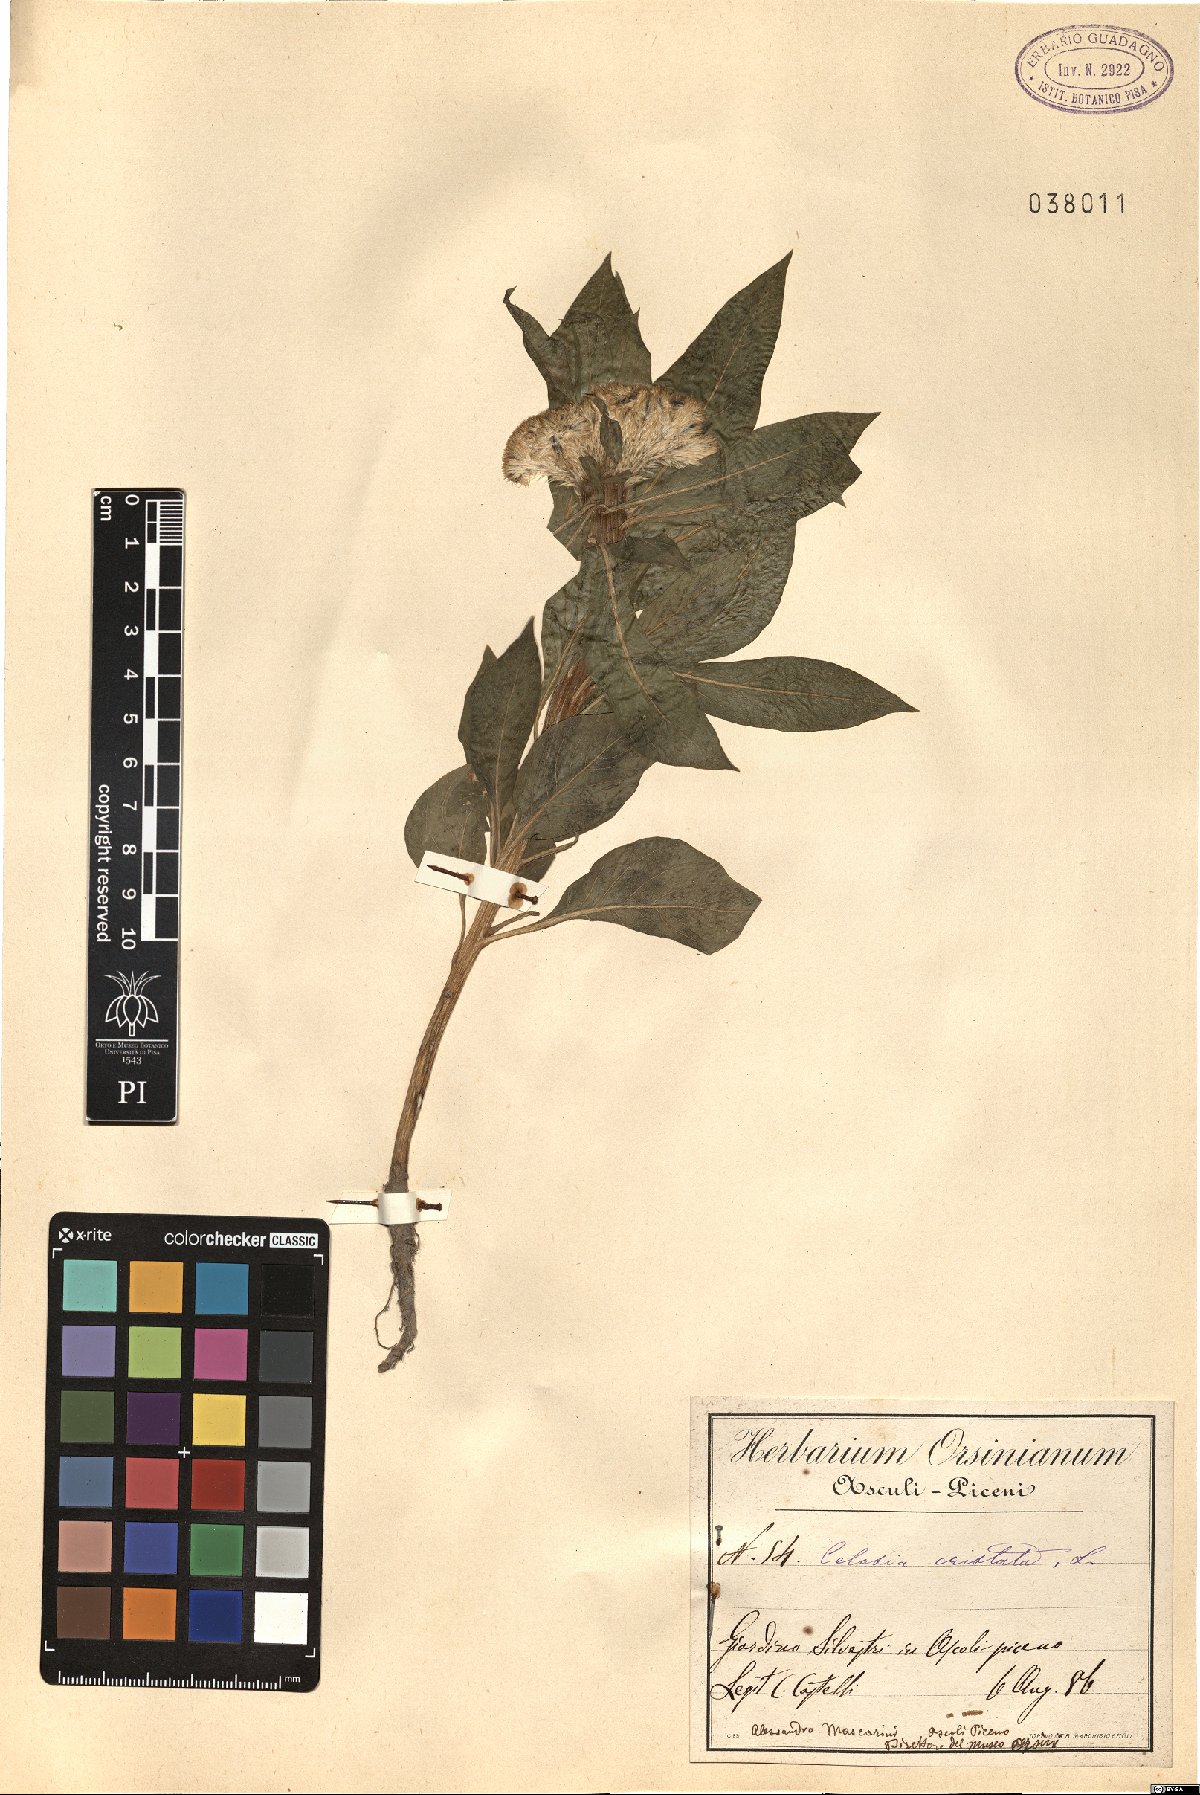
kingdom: Plantae
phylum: Tracheophyta
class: Magnoliopsida
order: Caryophyllales
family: Amaranthaceae
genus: Celosia
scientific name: Celosia argentea
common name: Feather cockscomb
